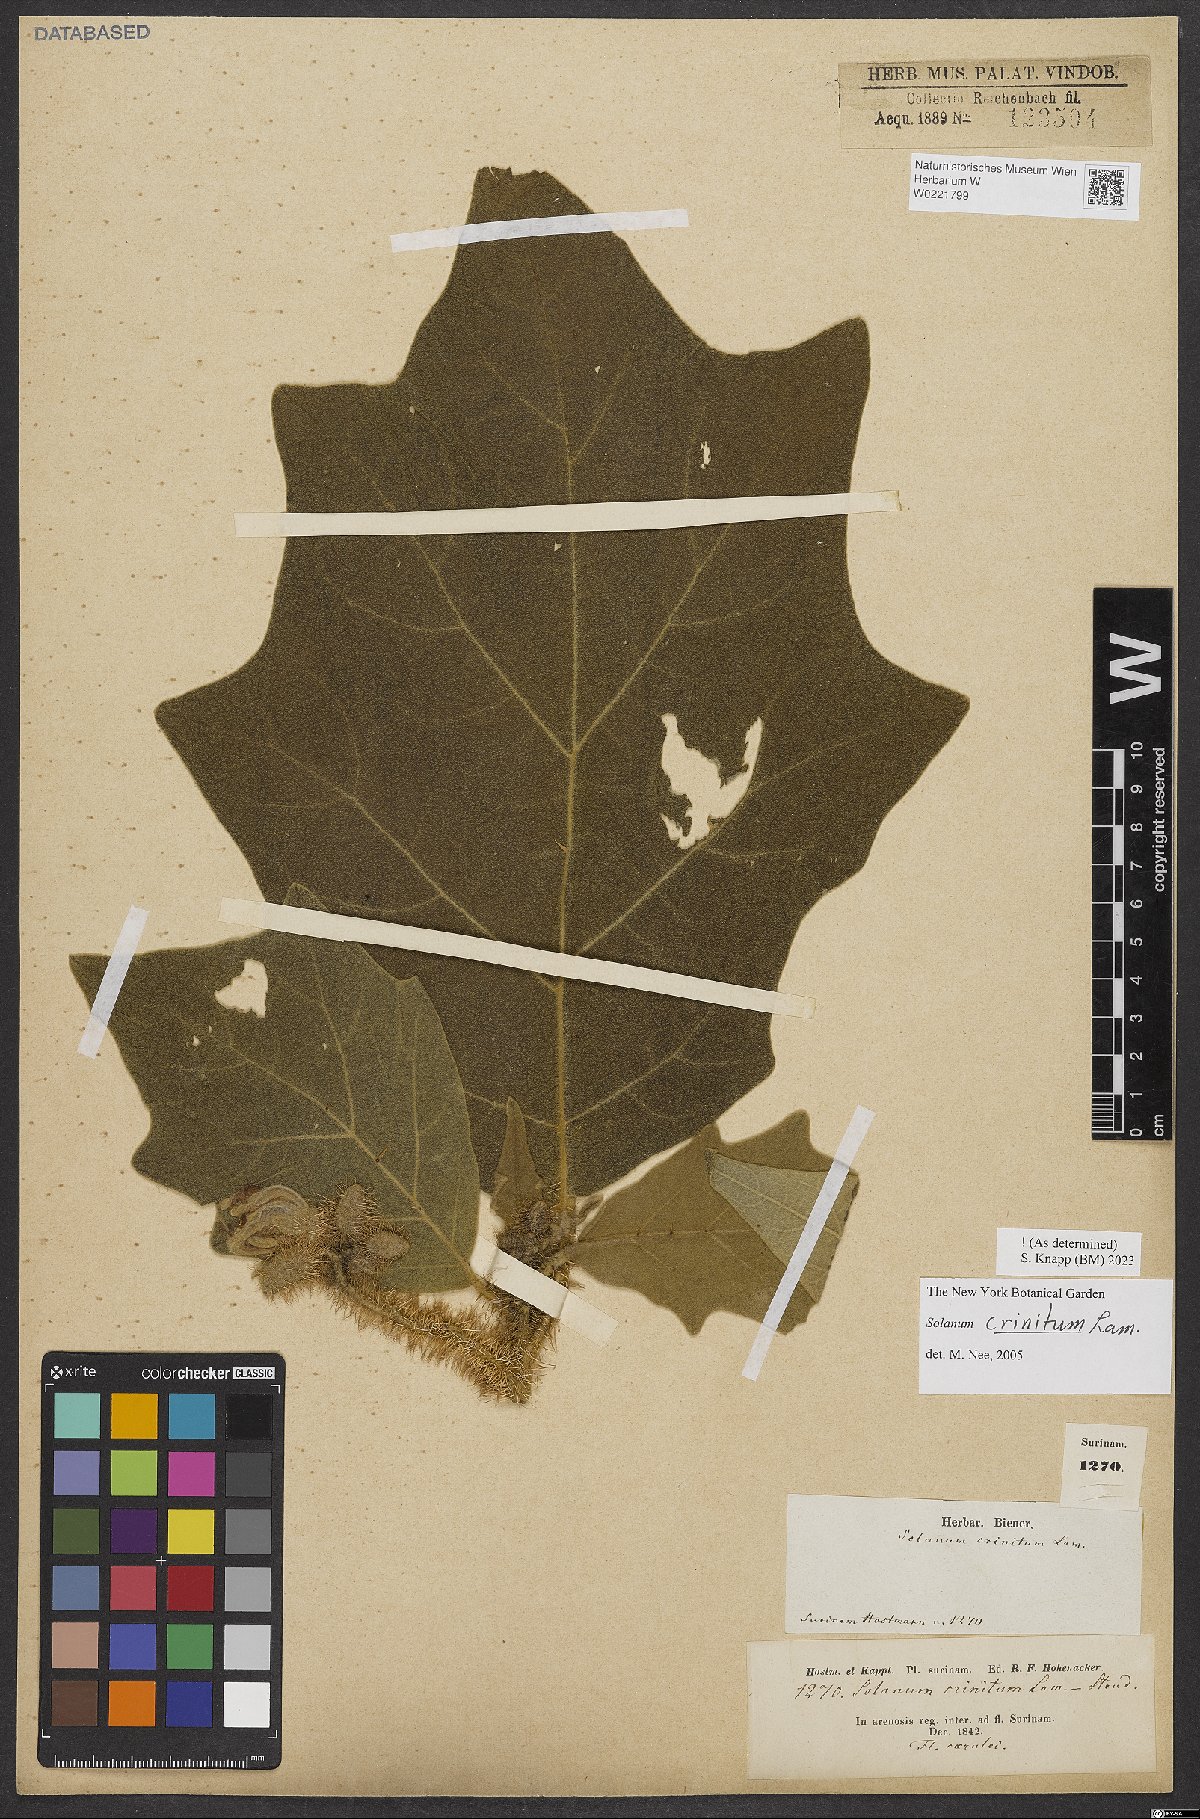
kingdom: Plantae
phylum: Tracheophyta
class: Magnoliopsida
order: Solanales
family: Solanaceae
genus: Solanum
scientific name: Solanum crinitum
